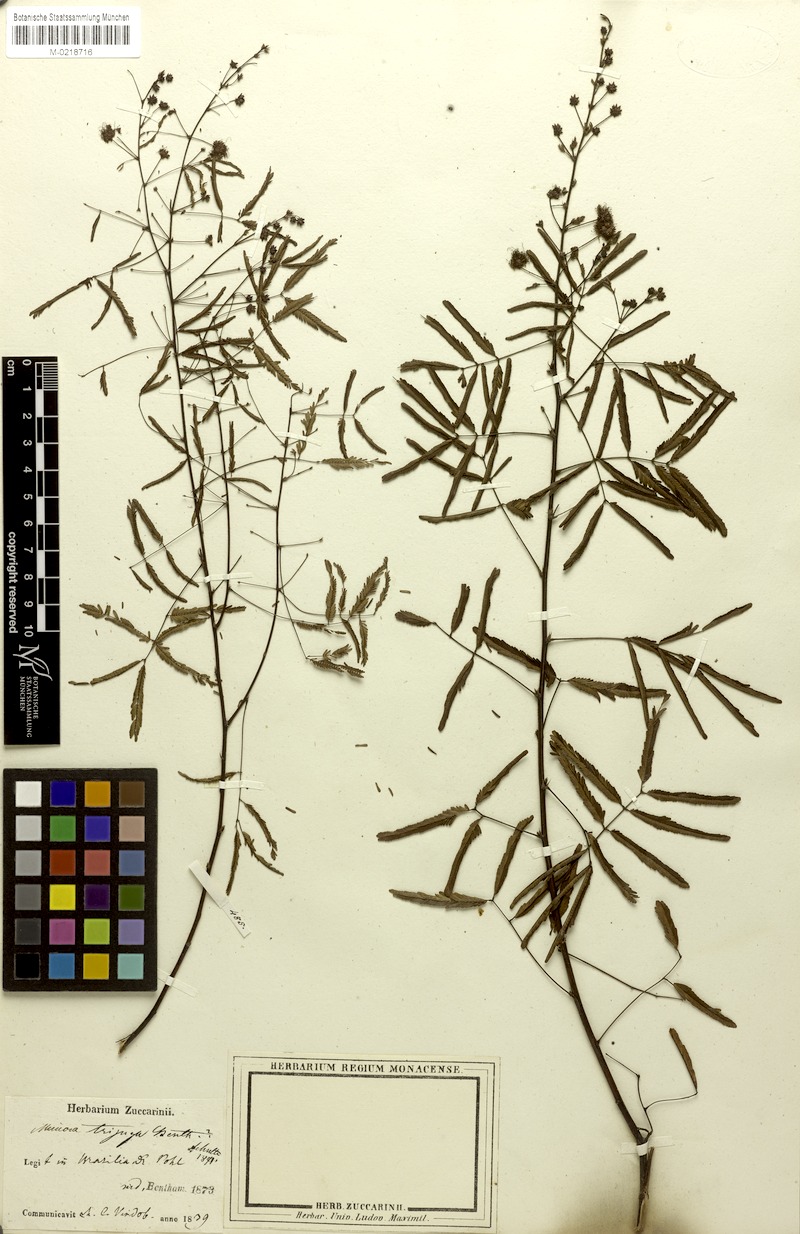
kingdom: Plantae
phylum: Tracheophyta
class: Magnoliopsida
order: Fabales
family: Fabaceae
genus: Mimosa
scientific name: Mimosa somnians
